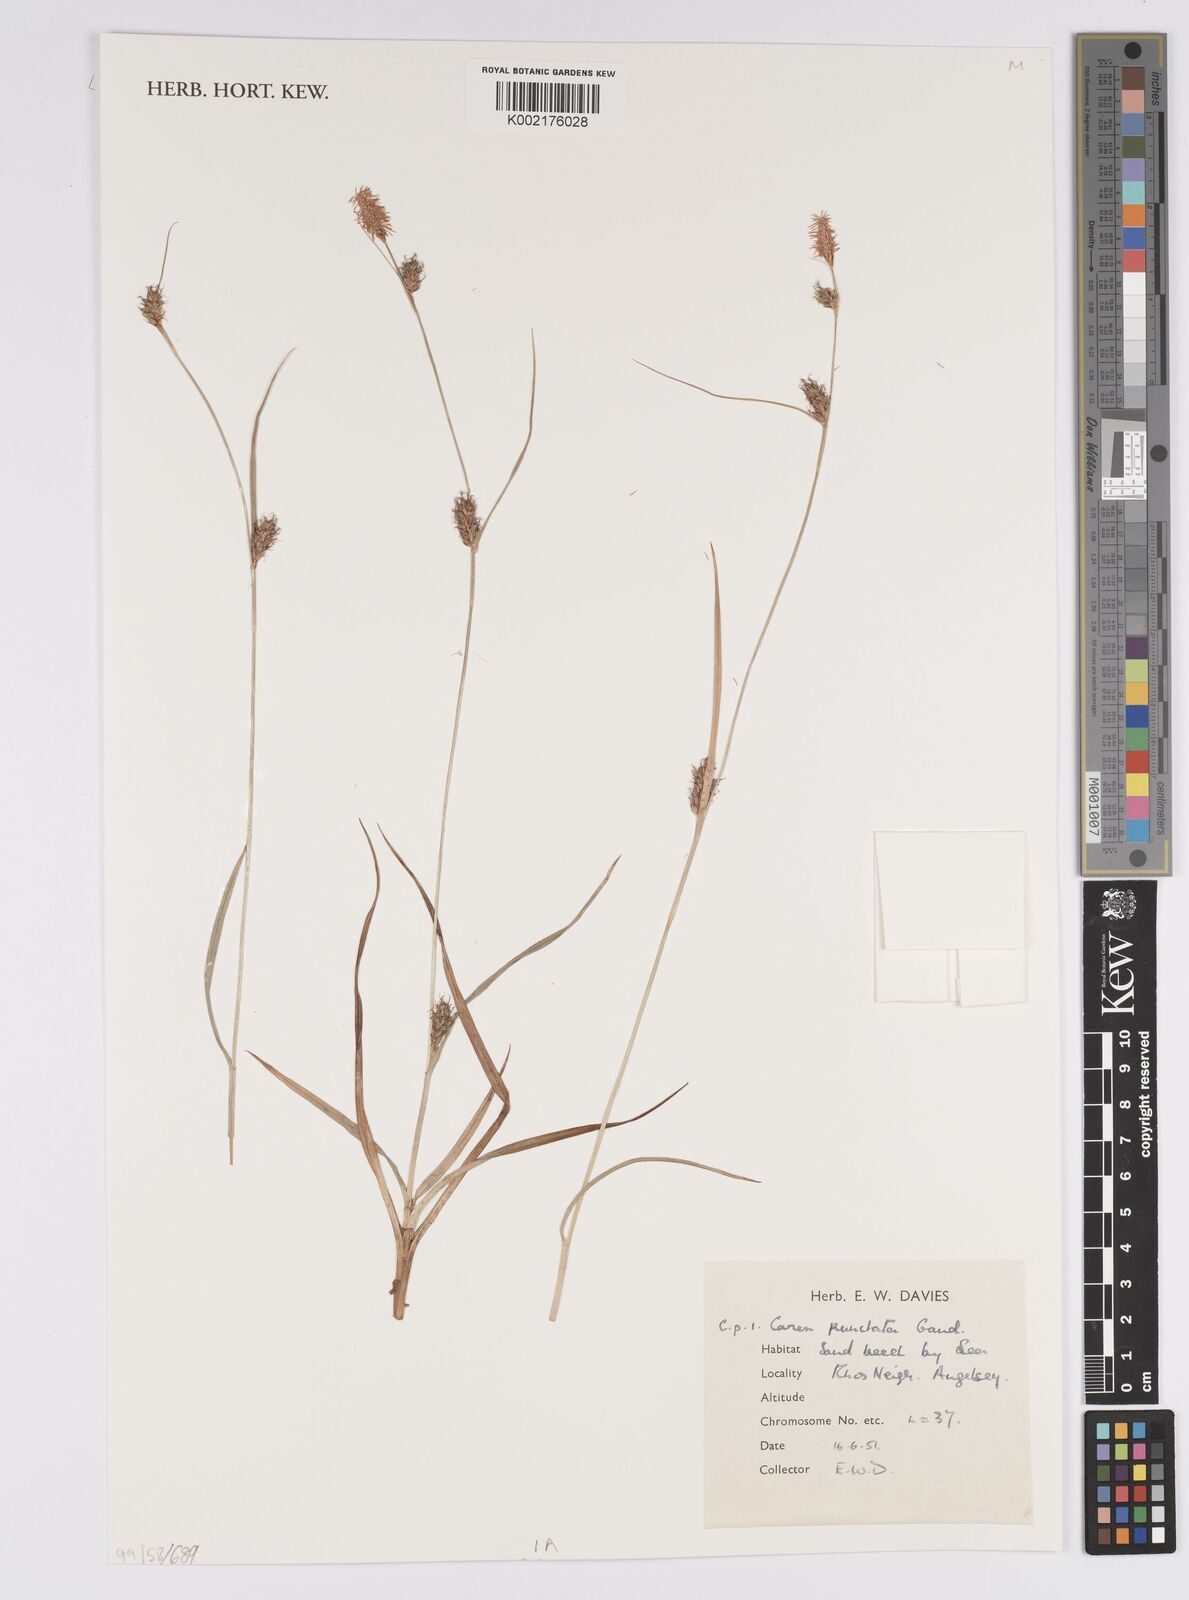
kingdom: Plantae
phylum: Tracheophyta
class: Liliopsida
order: Poales
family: Cyperaceae
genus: Carex
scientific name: Carex punctata
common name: Dotted sedge
